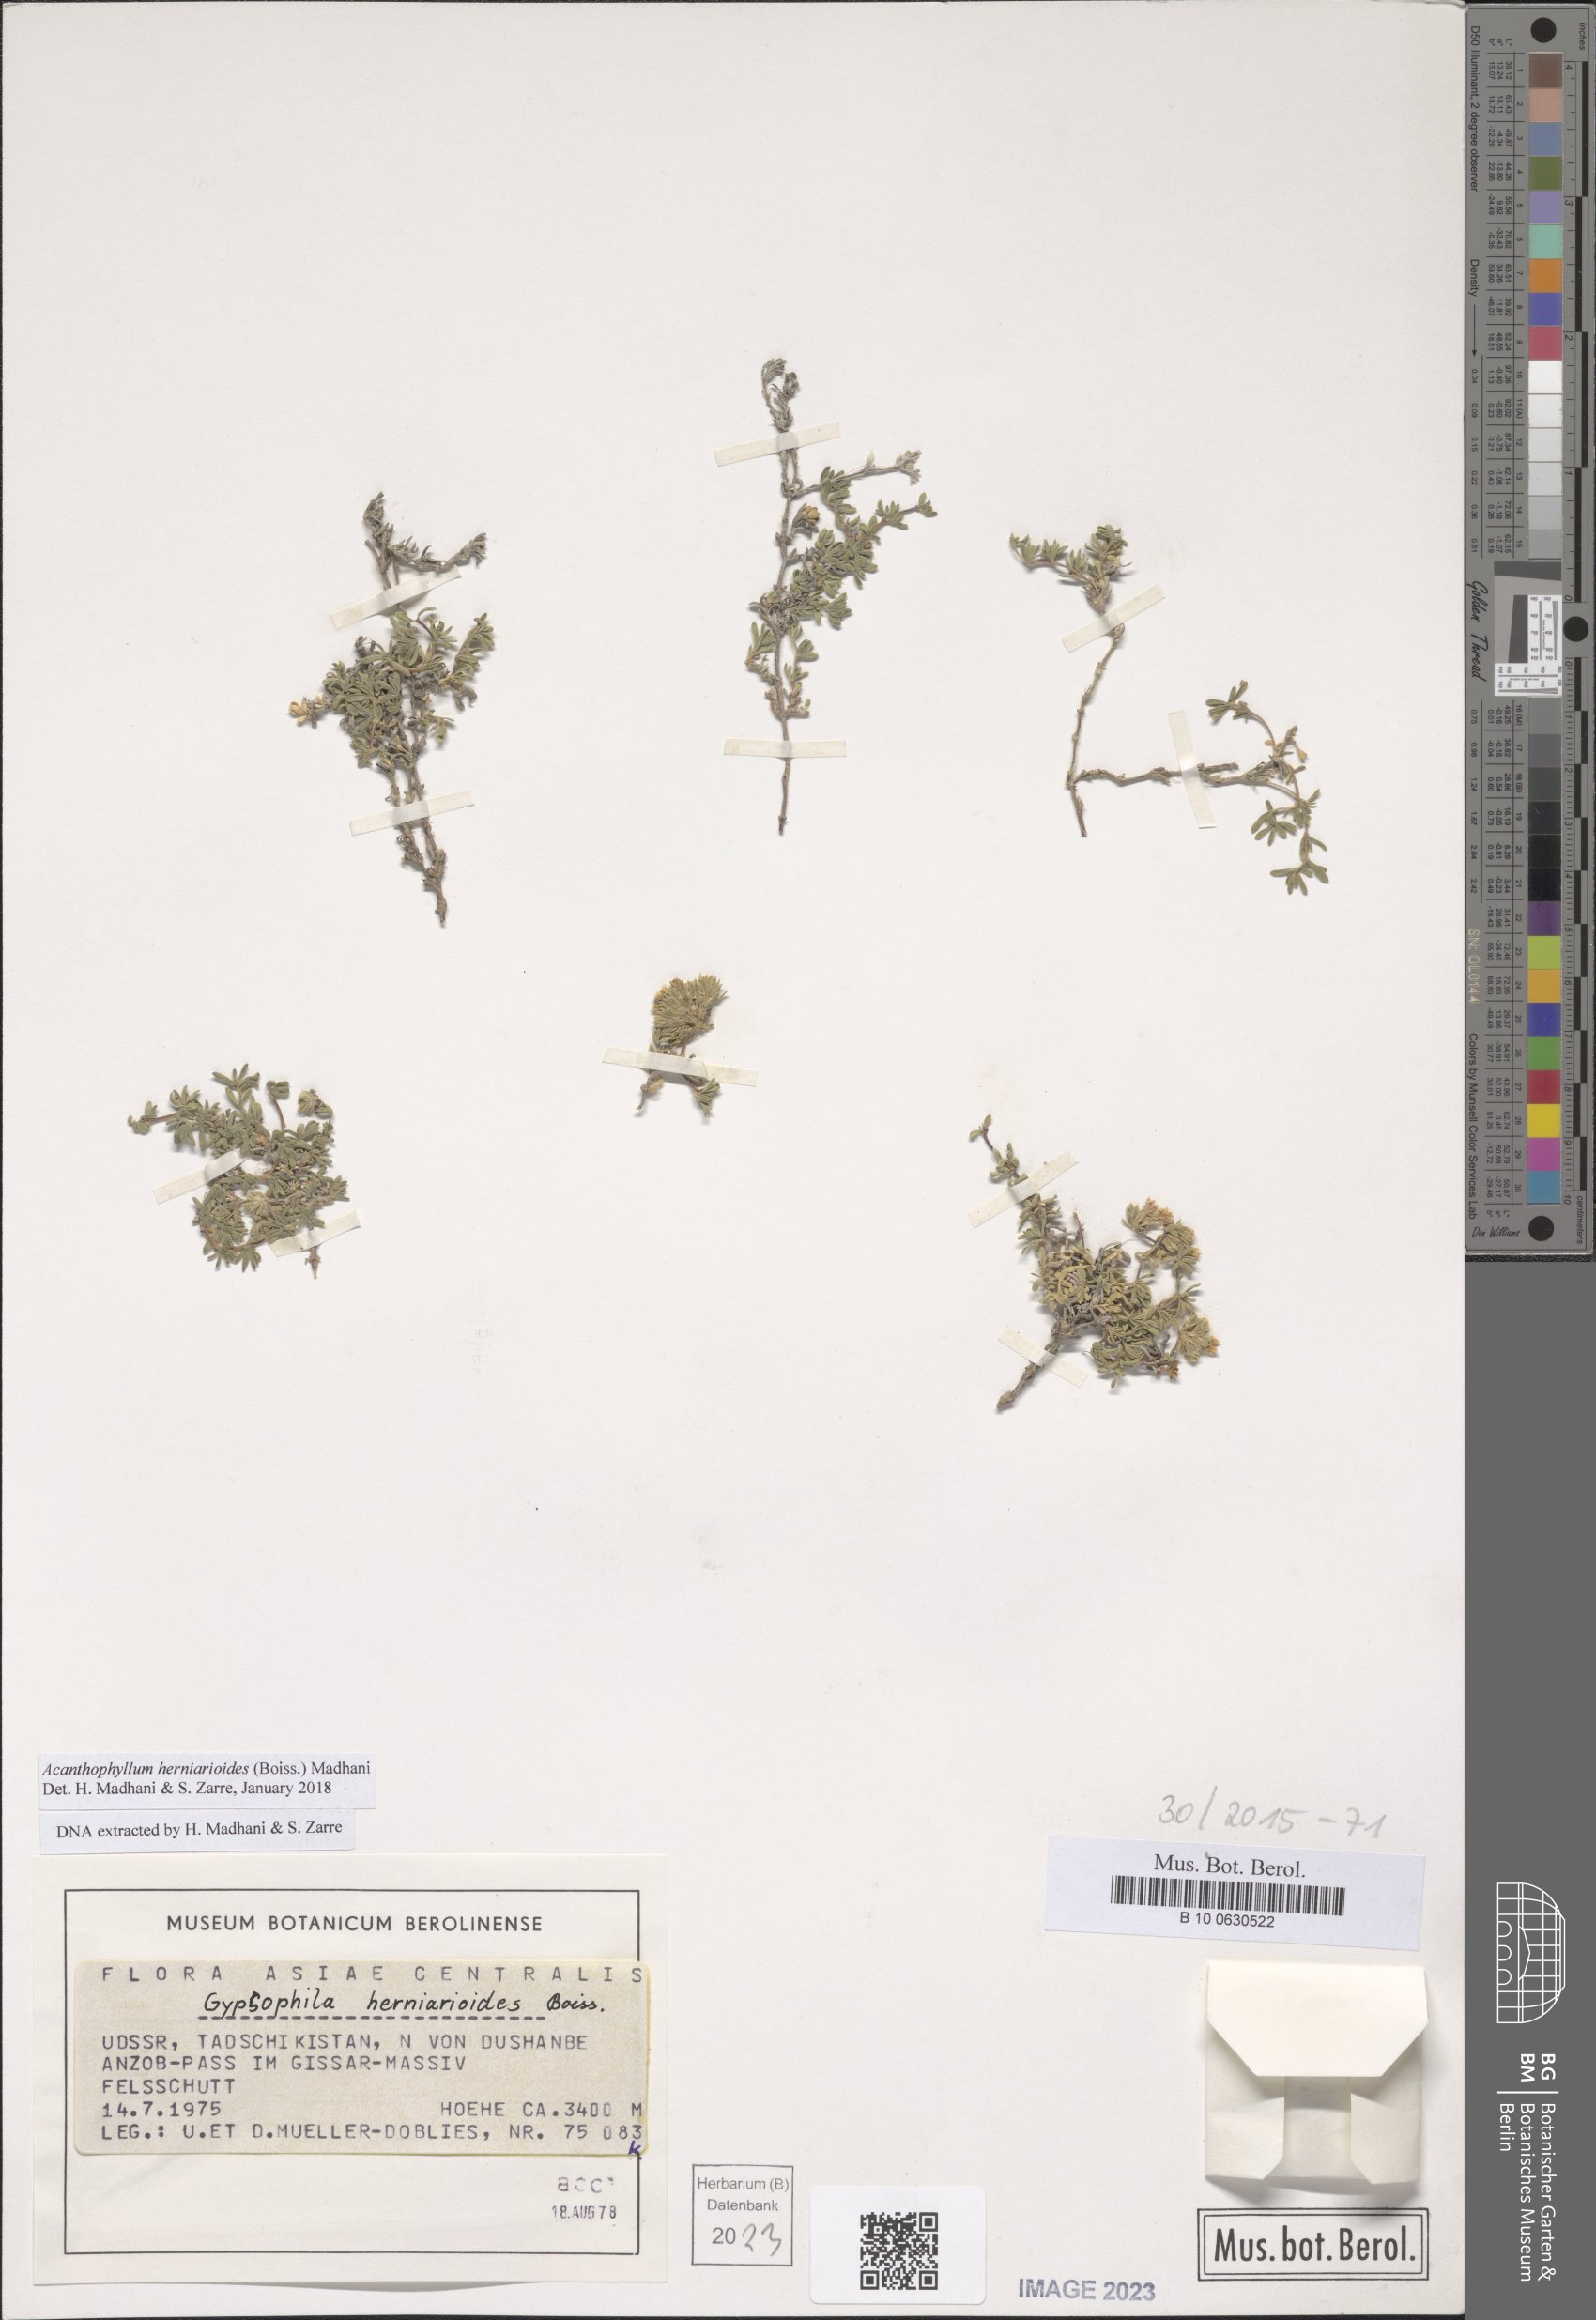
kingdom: Plantae
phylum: Tracheophyta
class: Magnoliopsida
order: Caryophyllales
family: Caryophyllaceae
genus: Acanthophyllum
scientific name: Acanthophyllum herniarioides
